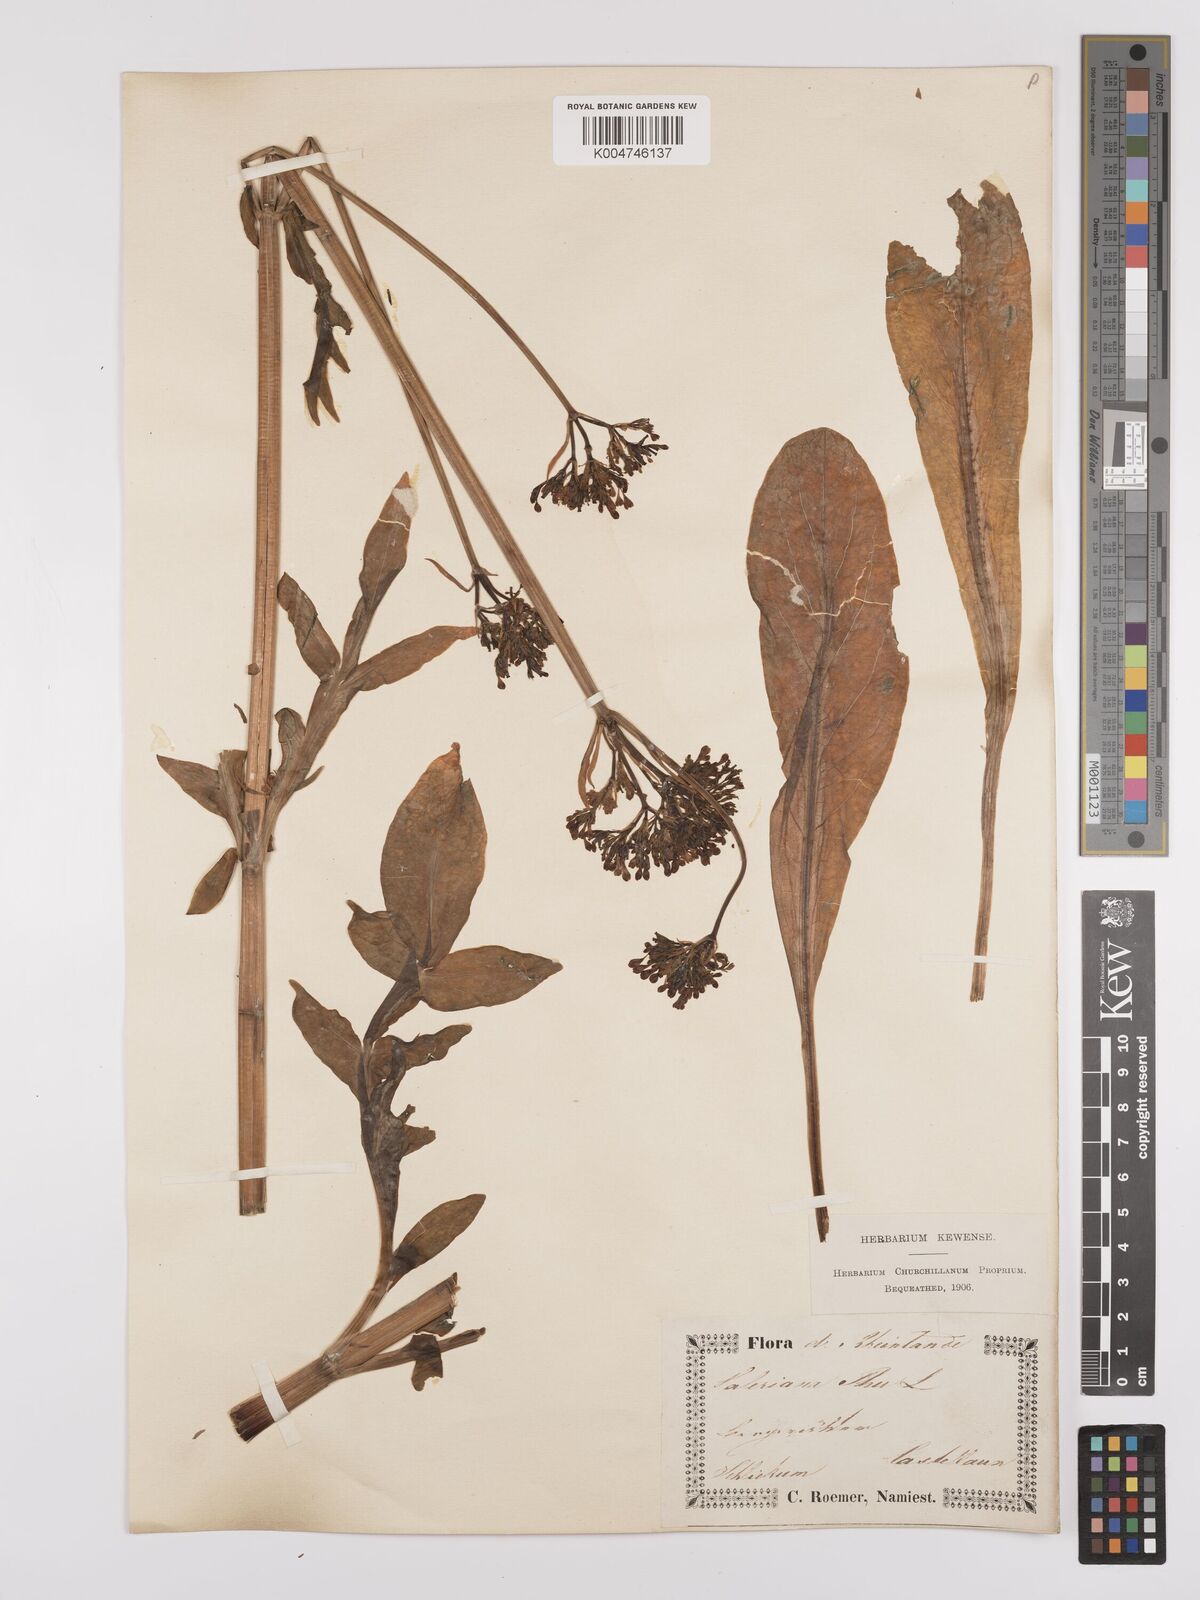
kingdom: Plantae
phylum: Tracheophyta
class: Magnoliopsida
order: Dipsacales
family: Caprifoliaceae
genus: Valeriana
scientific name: Valeriana phu
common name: Turkey valerian
